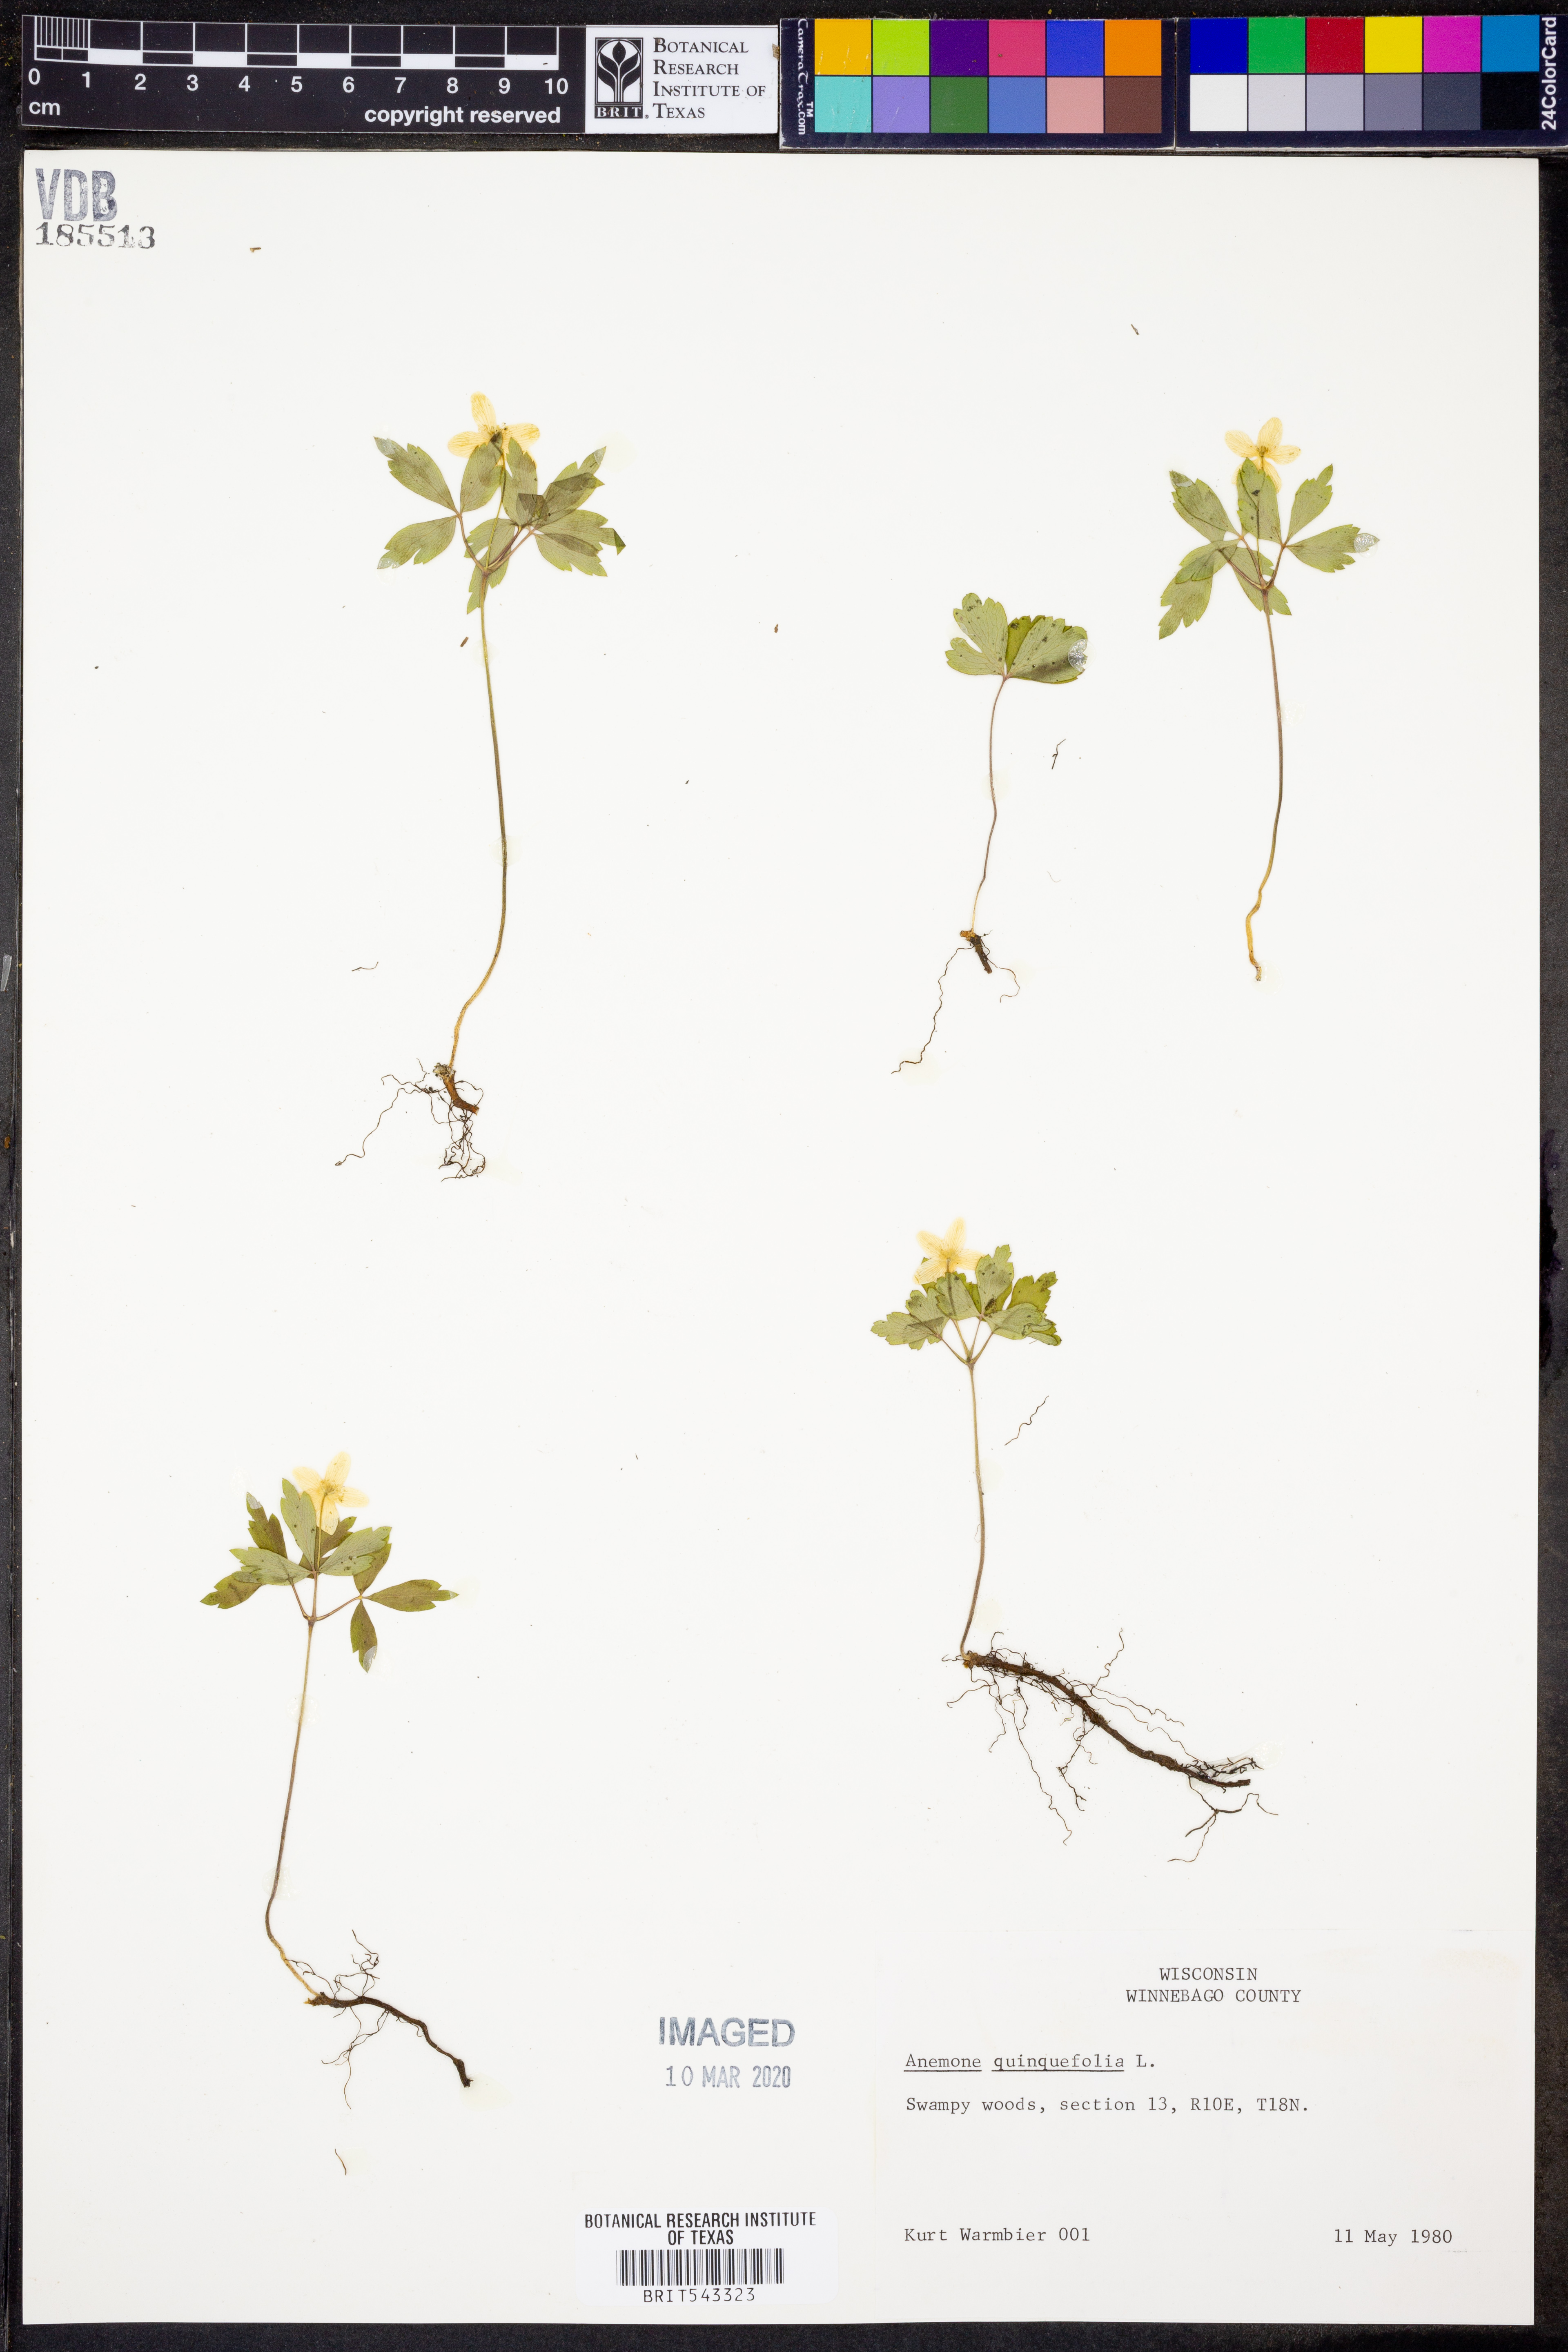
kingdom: Plantae
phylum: Tracheophyta
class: Magnoliopsida
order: Ranunculales
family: Ranunculaceae
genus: Anemone
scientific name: Anemone quinquefolia
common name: Wood anemone
